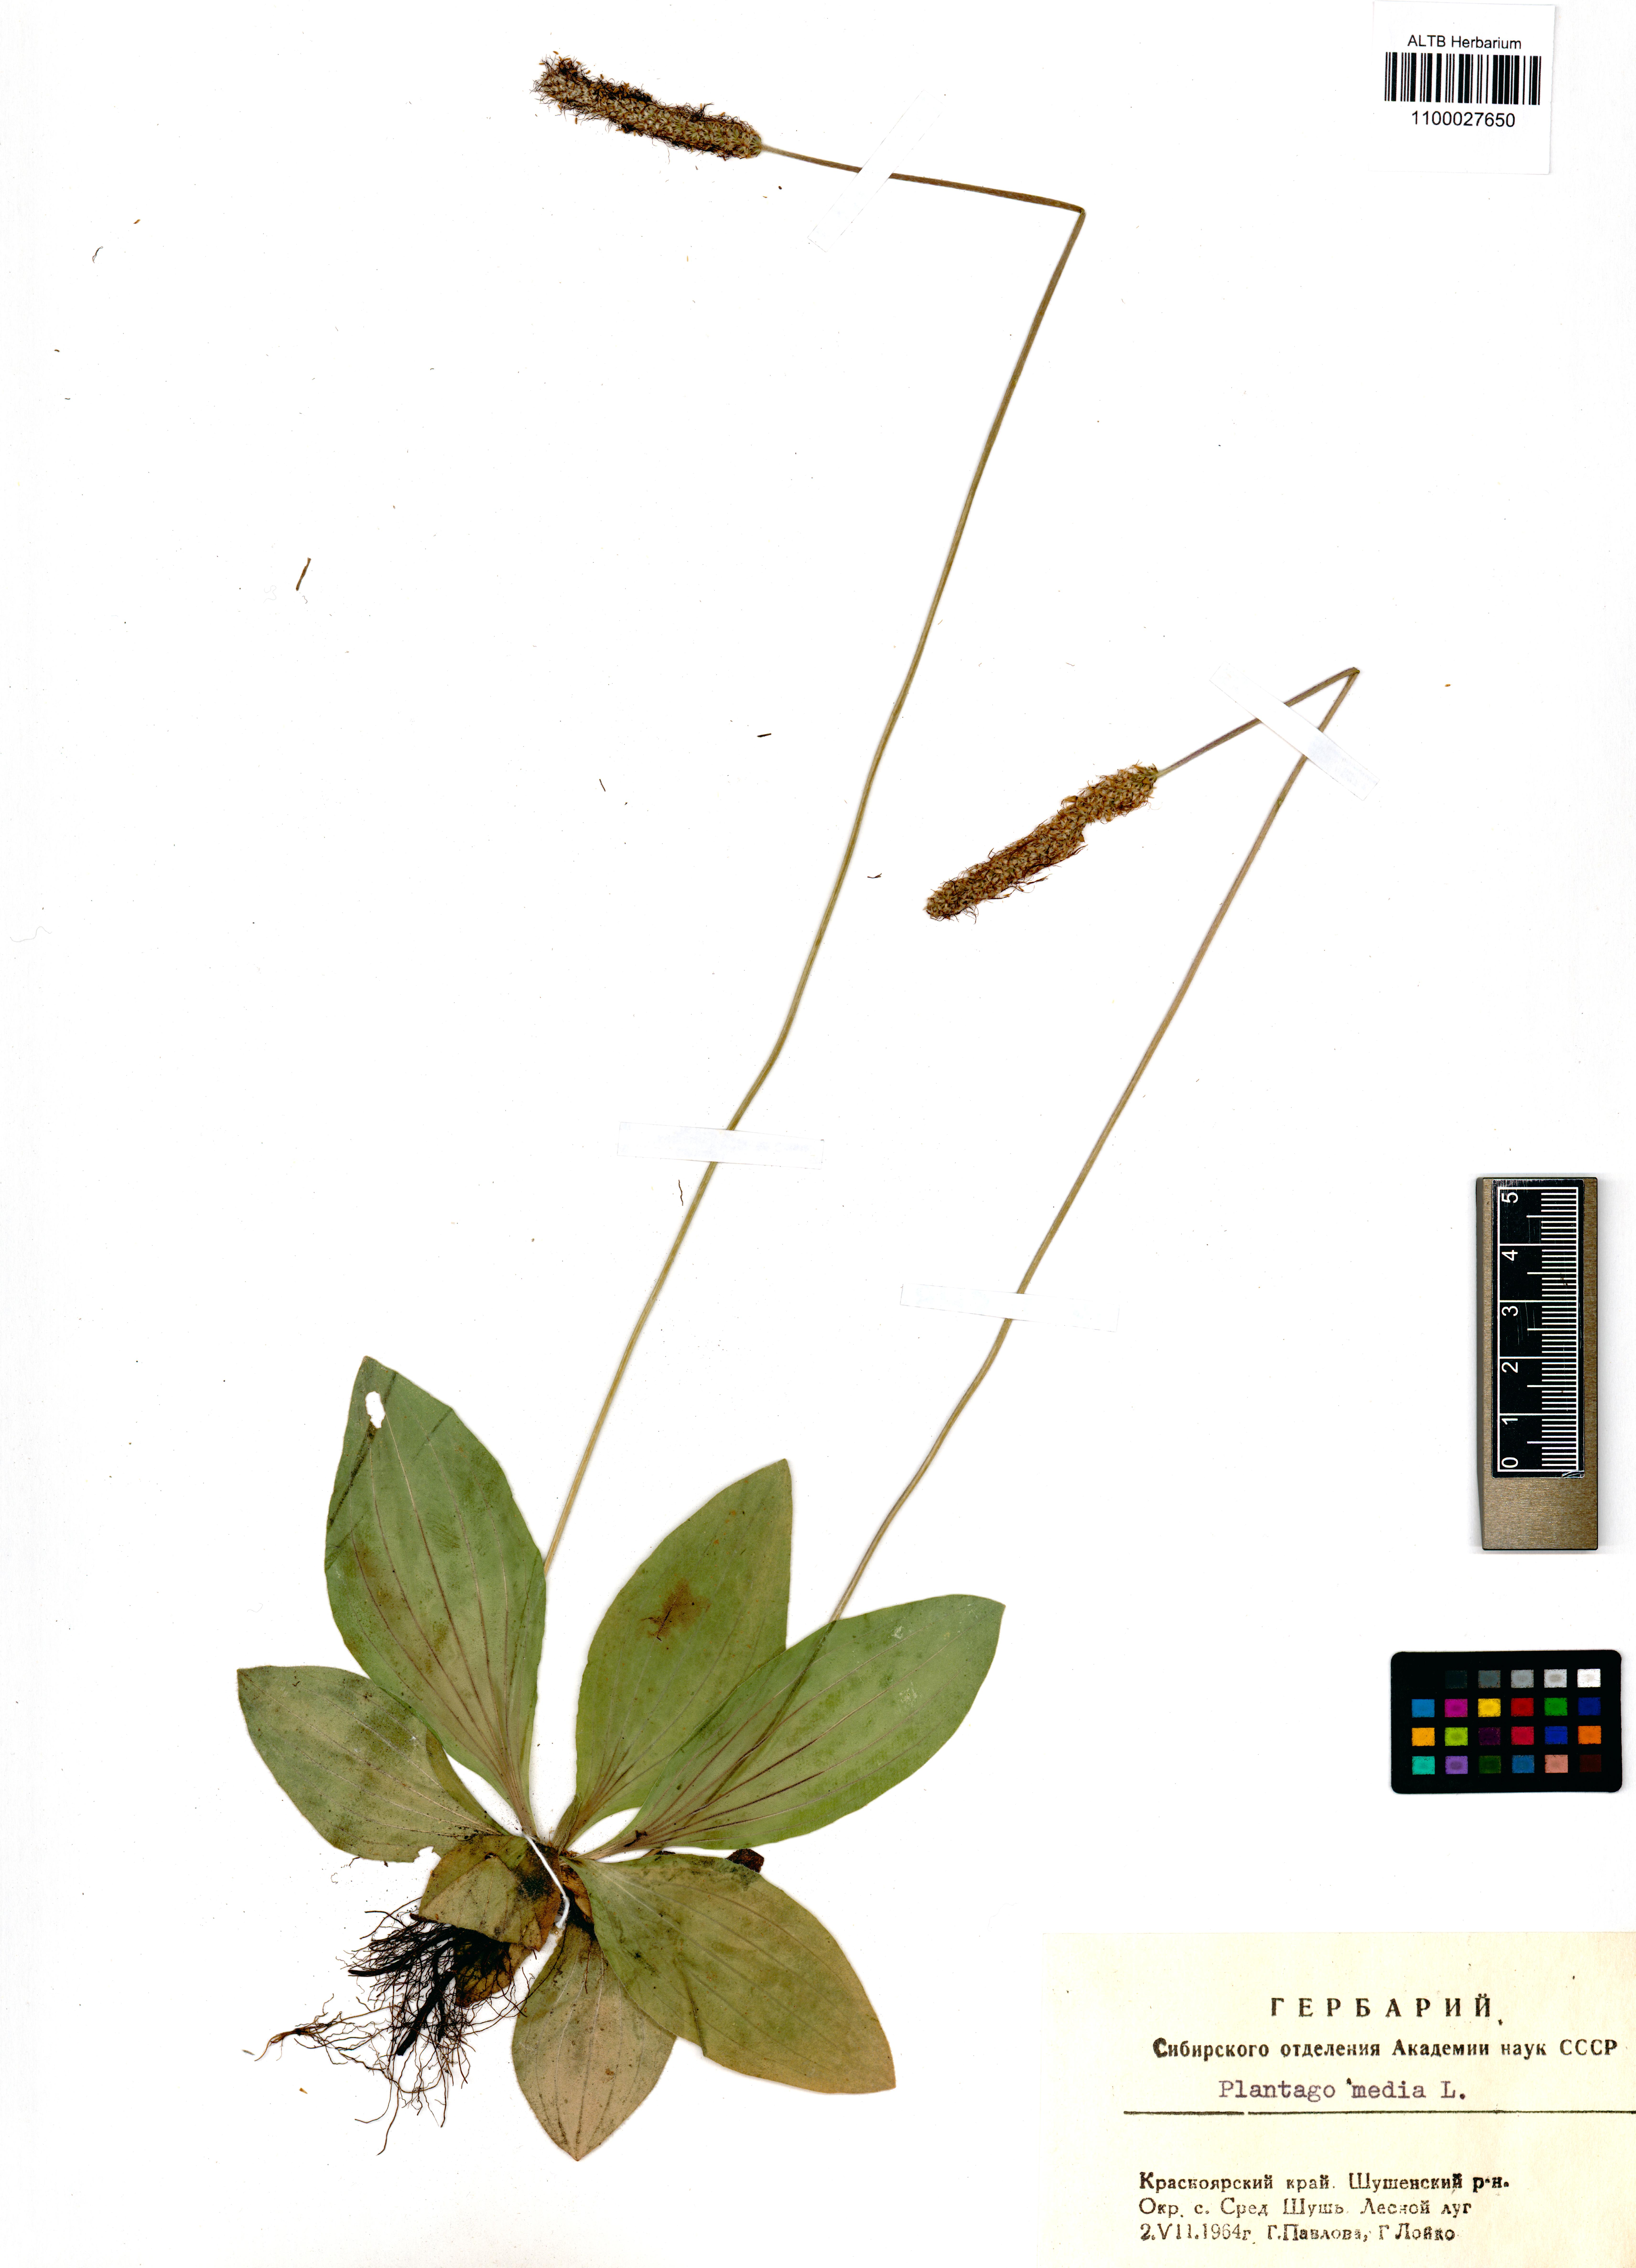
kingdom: Plantae
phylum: Tracheophyta
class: Magnoliopsida
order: Lamiales
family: Plantaginaceae
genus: Plantago
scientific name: Plantago media
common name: Hoary plantain
